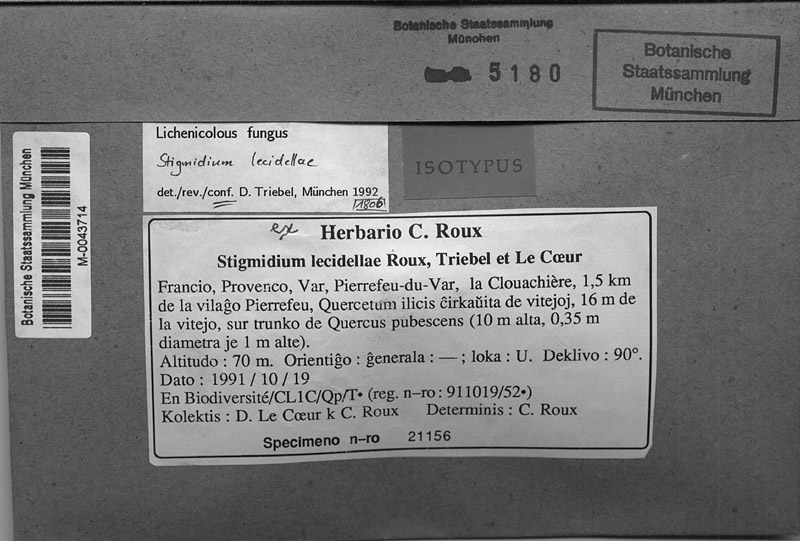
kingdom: Fungi
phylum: Ascomycota
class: Lecanoromycetes
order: Lecanorales
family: Lecanoraceae
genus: Lecidella
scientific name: Lecidella elaeochroma
